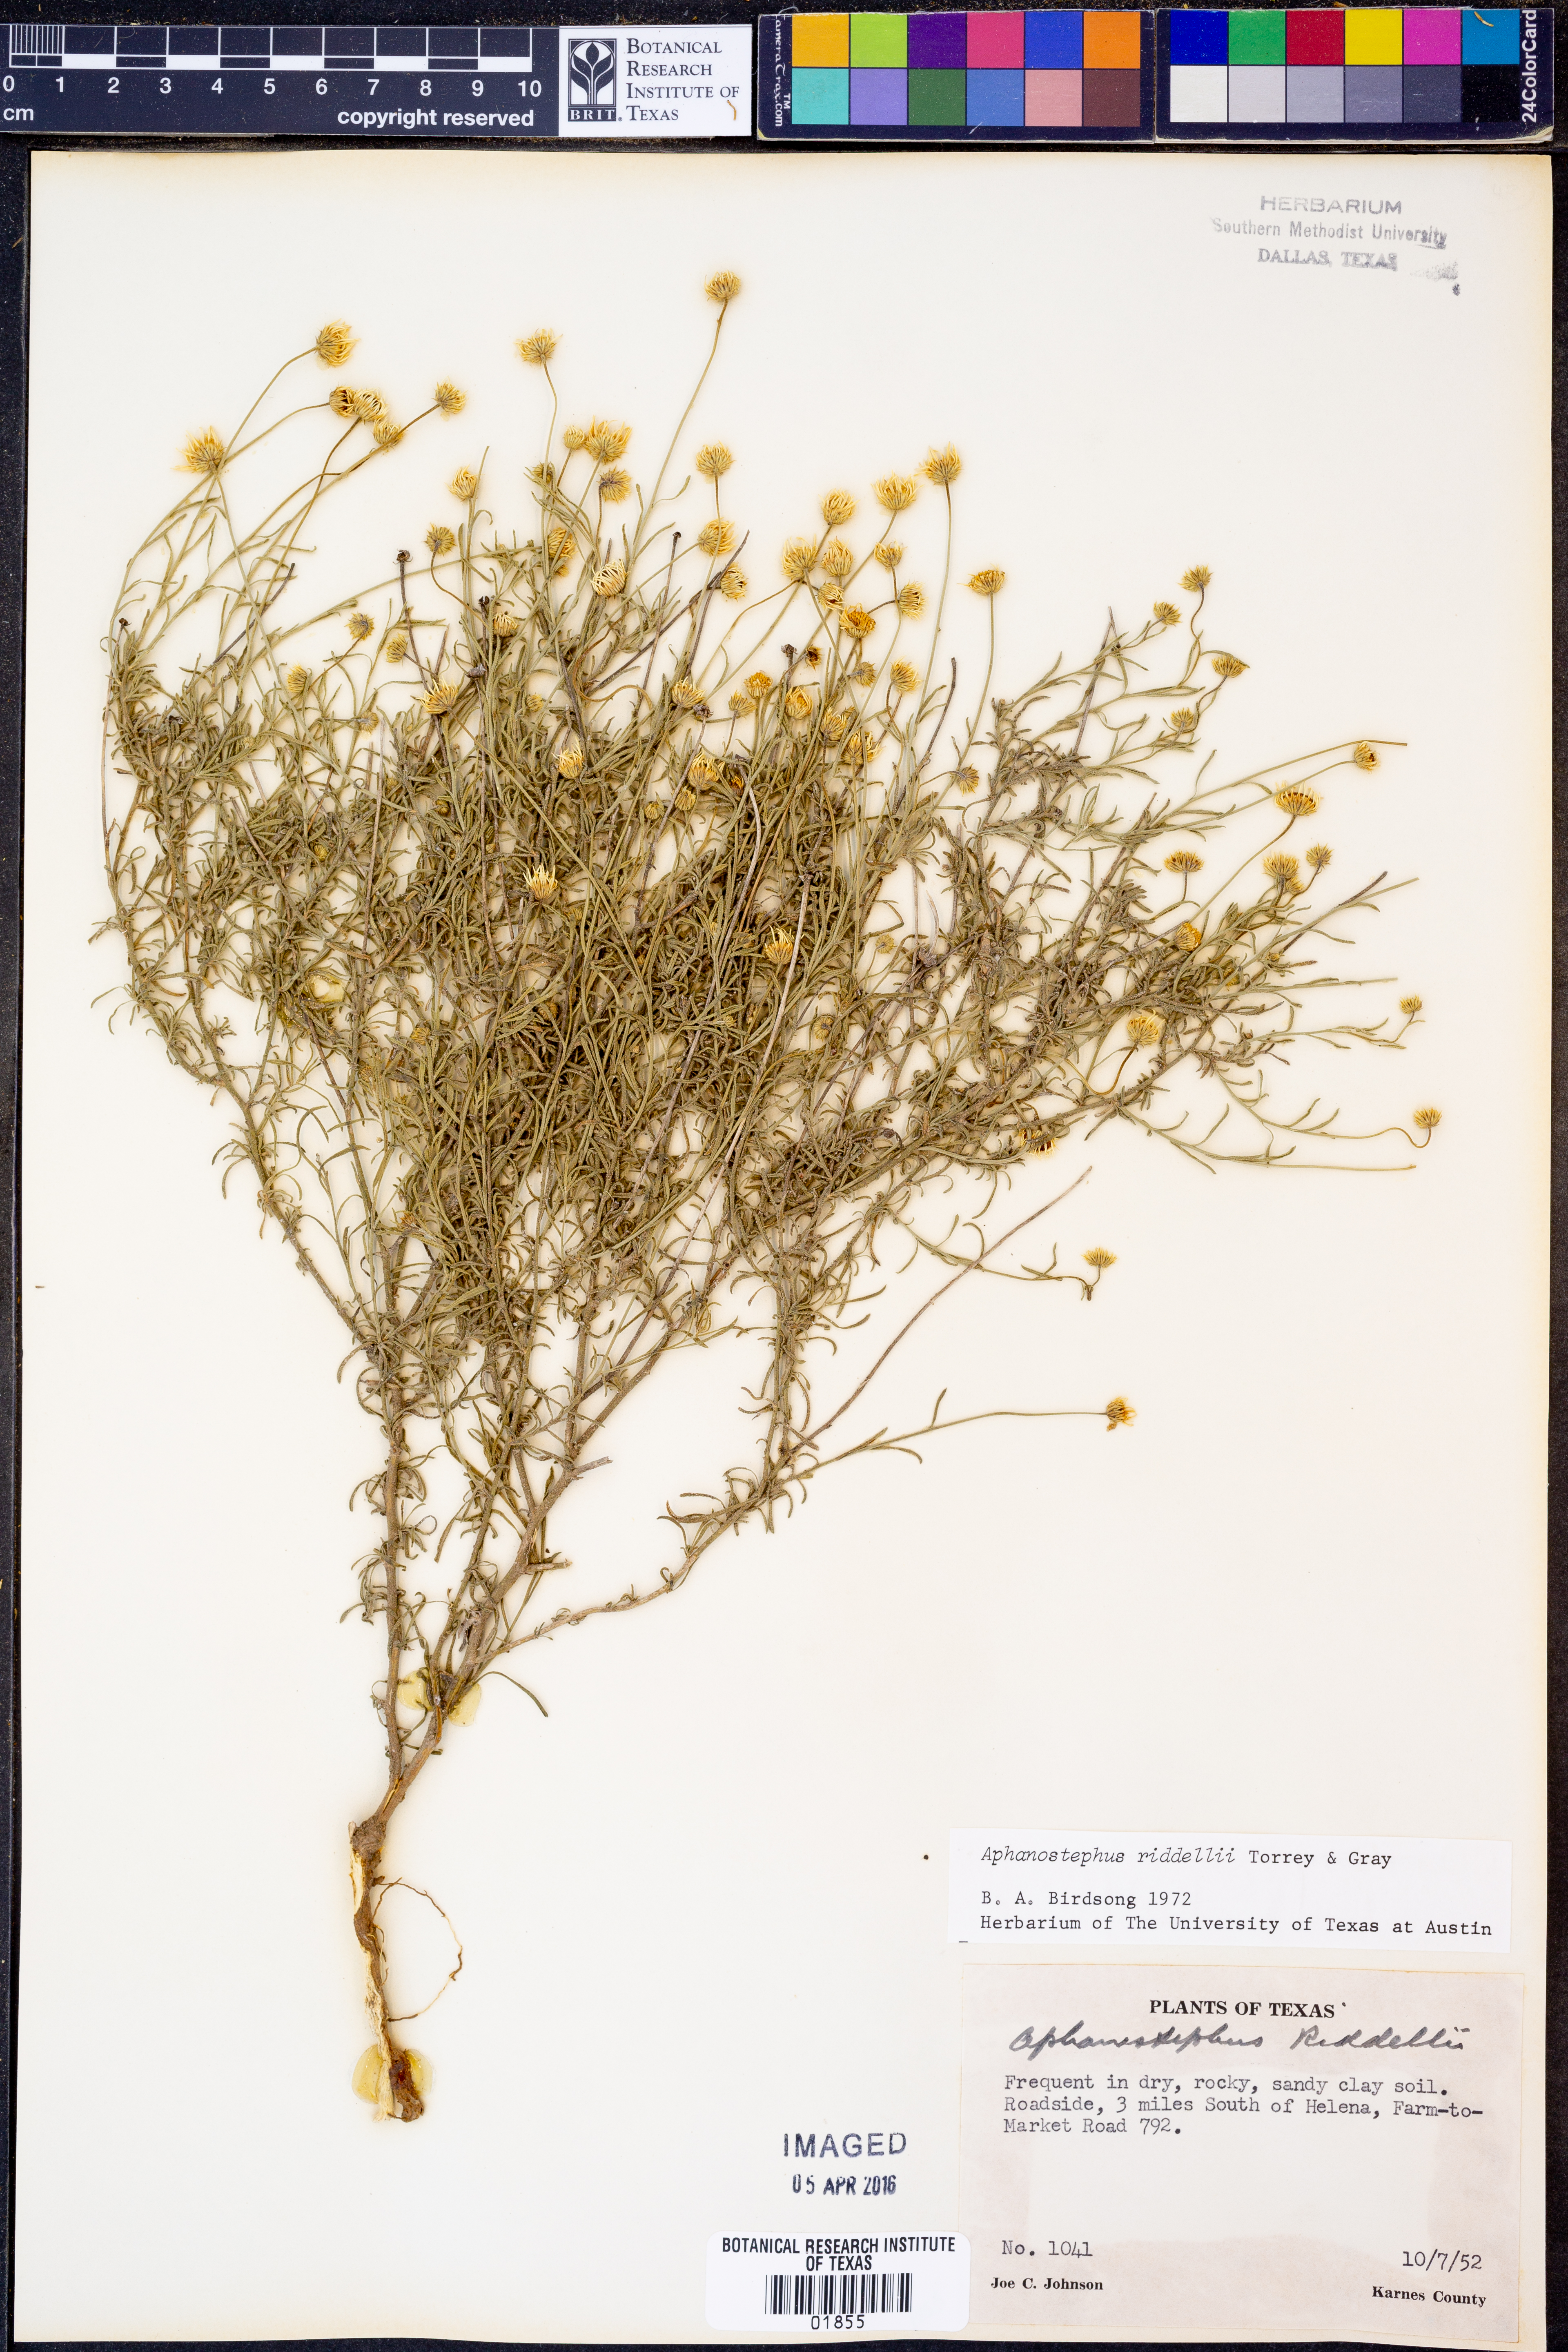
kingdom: Plantae
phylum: Tracheophyta
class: Magnoliopsida
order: Asterales
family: Asteraceae
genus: Aphanostephus
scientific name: Aphanostephus riddellii
